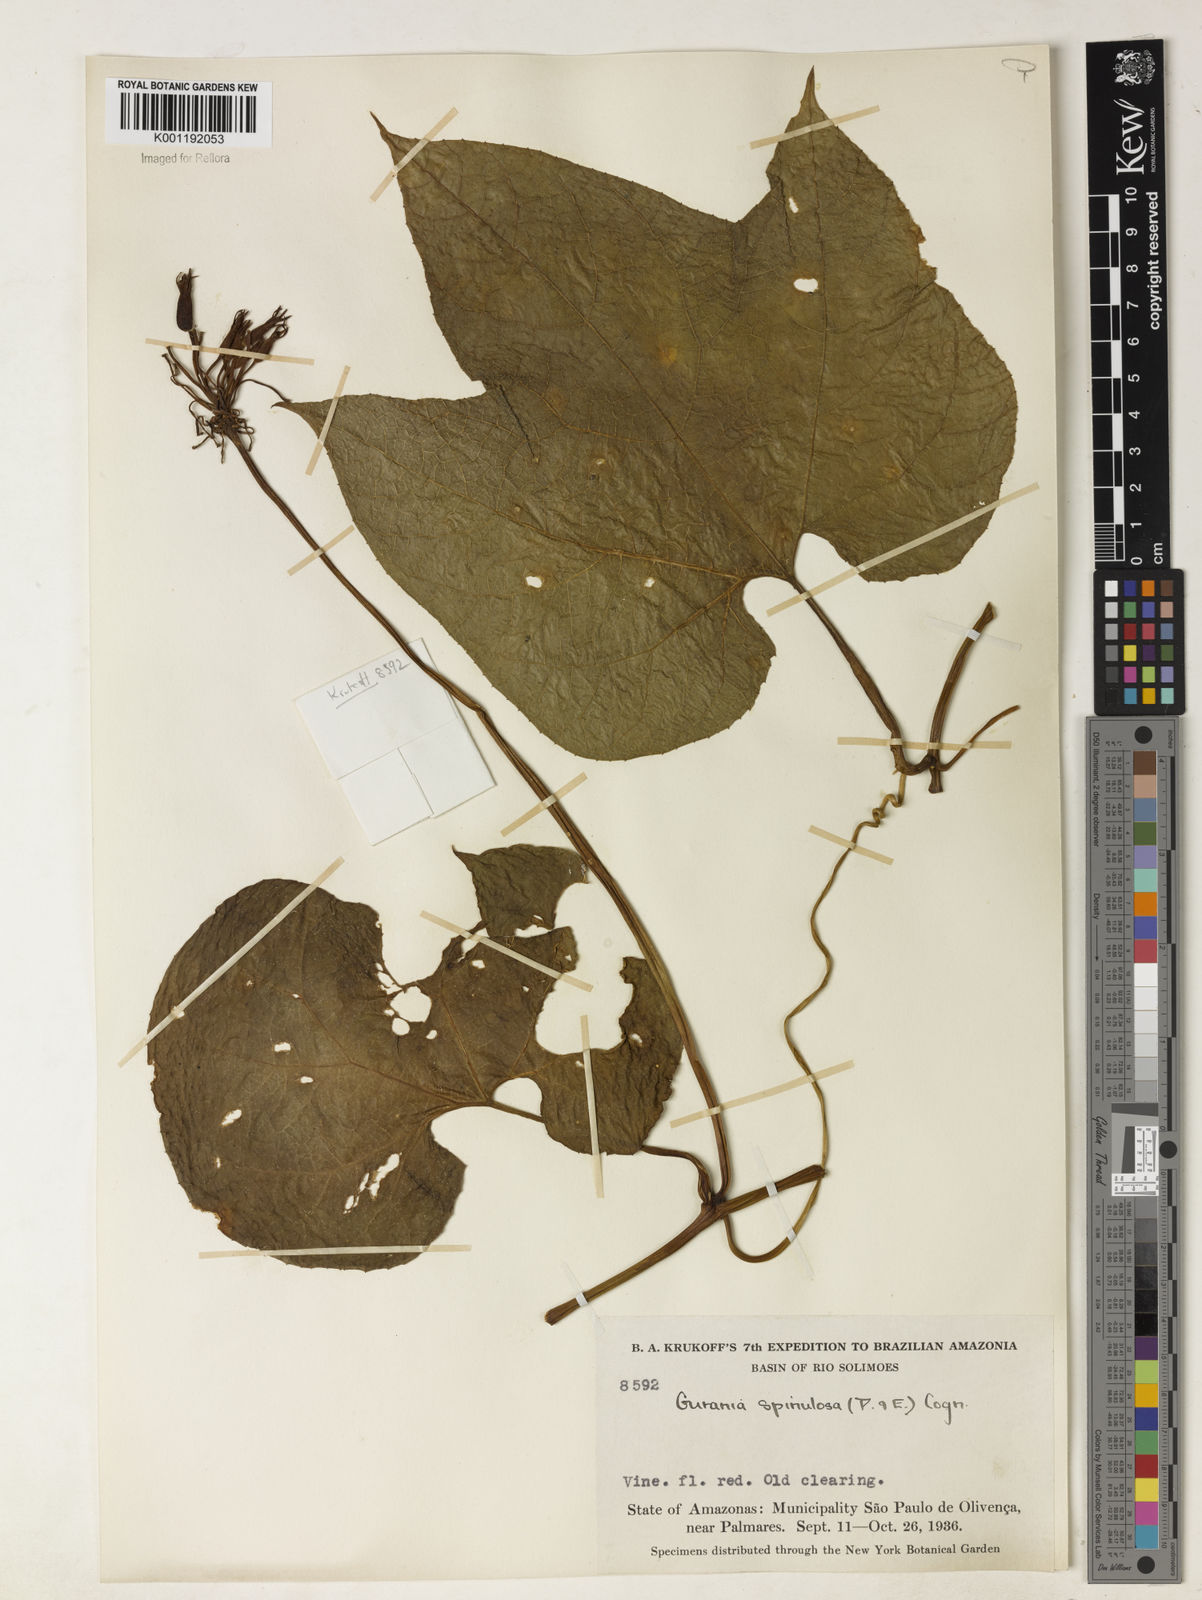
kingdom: Plantae
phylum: Tracheophyta
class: Magnoliopsida
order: Cucurbitales
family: Cucurbitaceae
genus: Gurania
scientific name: Gurania lobata
